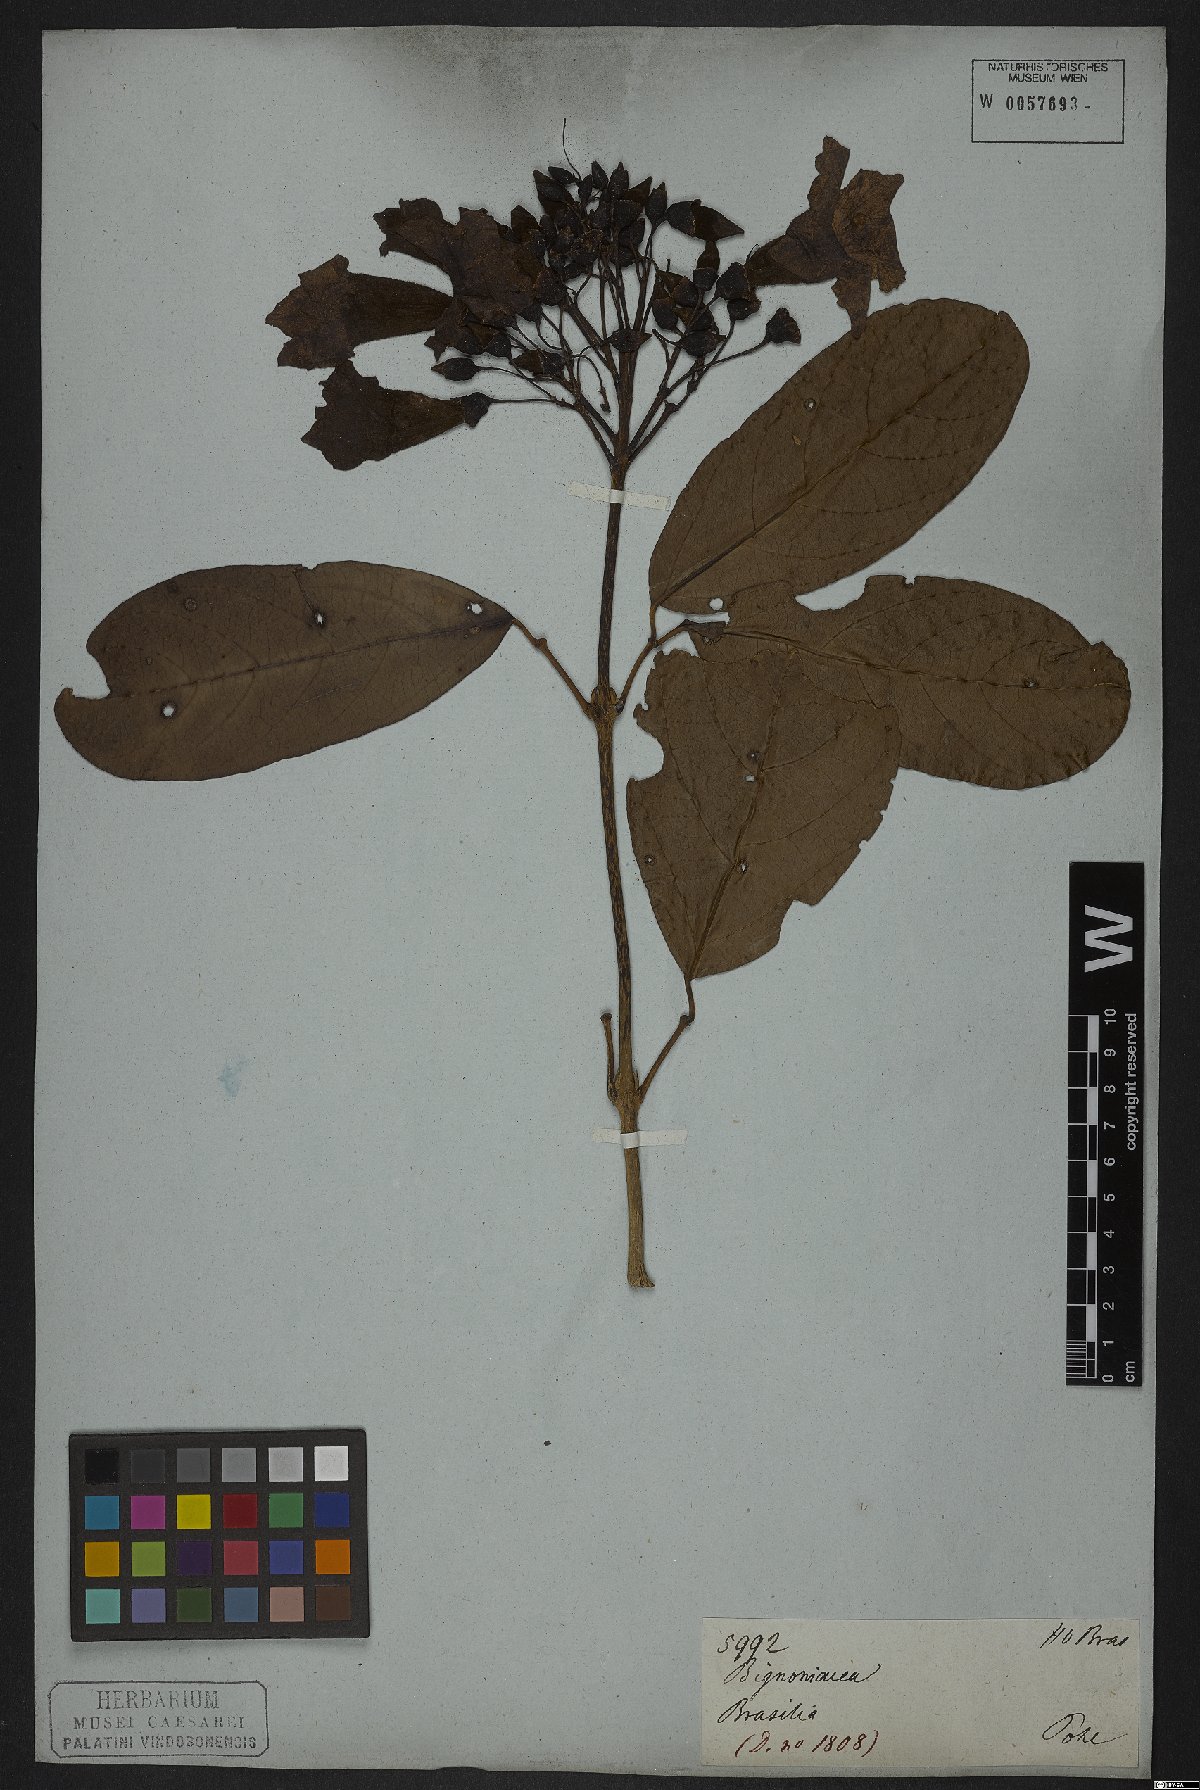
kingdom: Plantae
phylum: Tracheophyta
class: Magnoliopsida
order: Lamiales
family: Bignoniaceae
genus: Tanaecium
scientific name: Tanaecium pyramidatum
